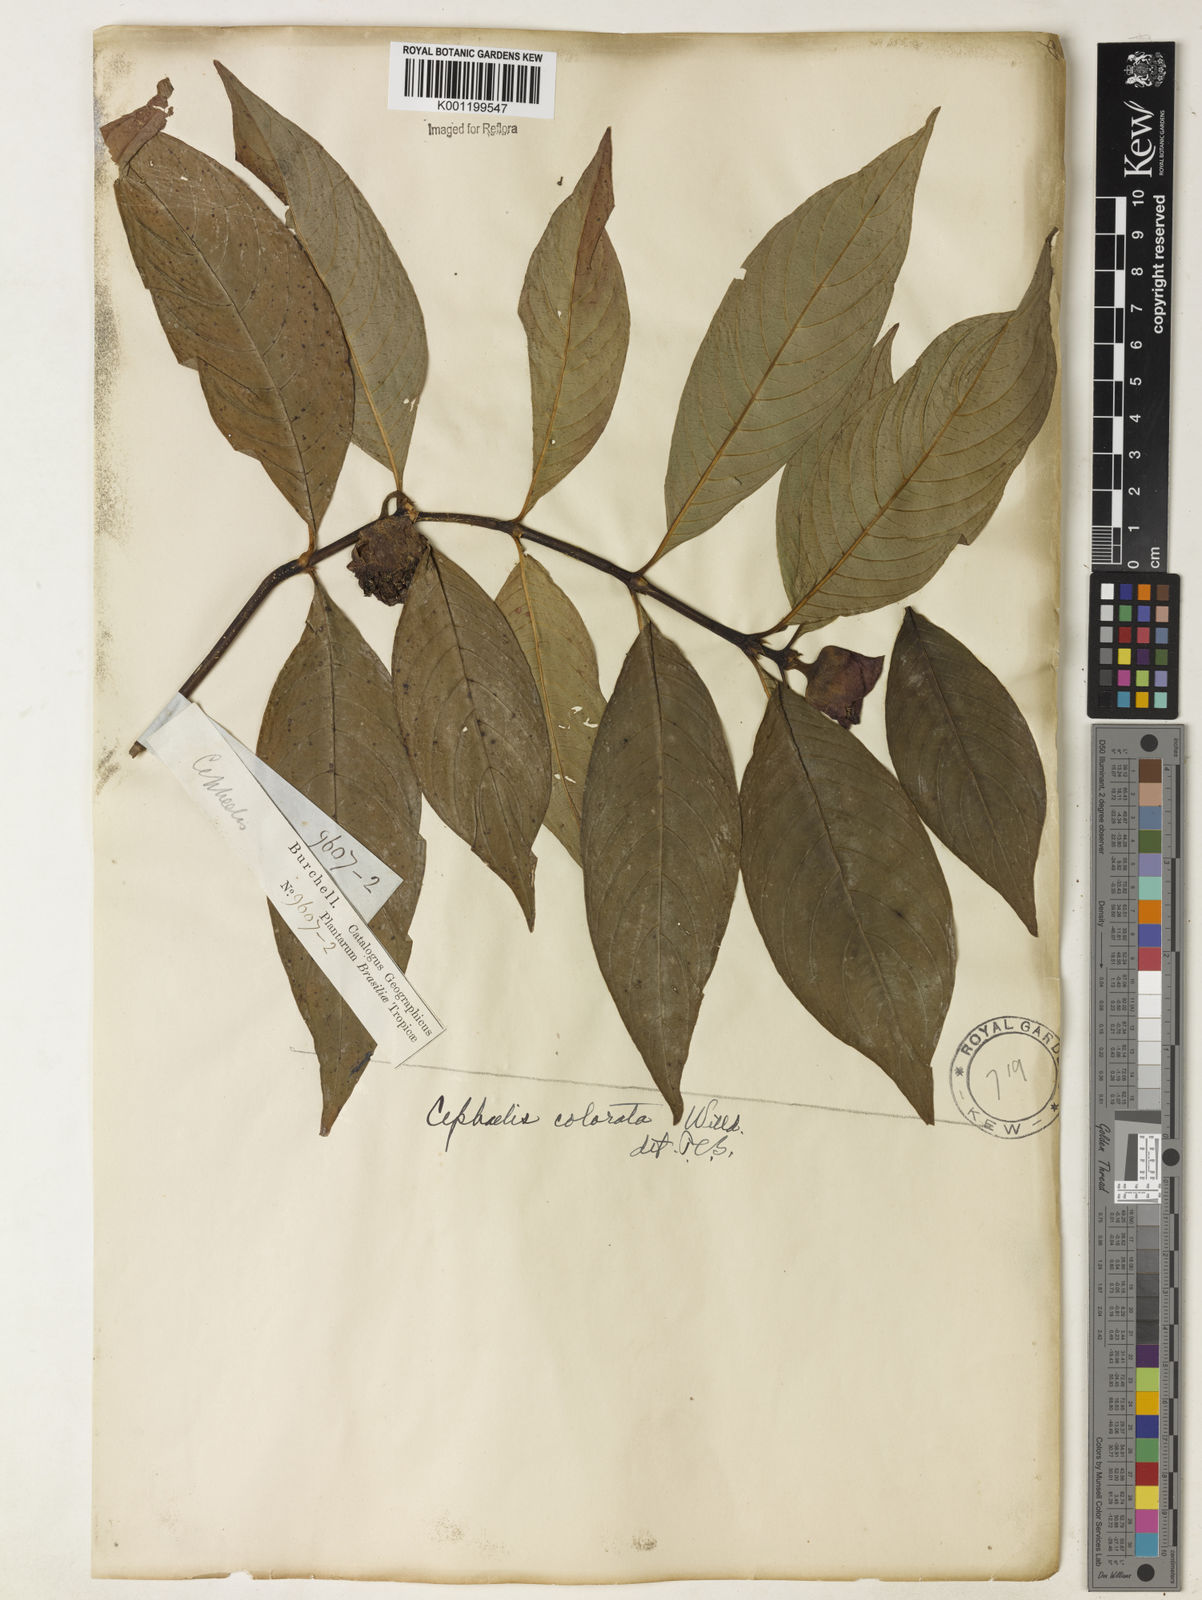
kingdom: Plantae
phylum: Tracheophyta
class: Magnoliopsida
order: Gentianales
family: Rubiaceae
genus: Psychotria
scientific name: Psychotria
